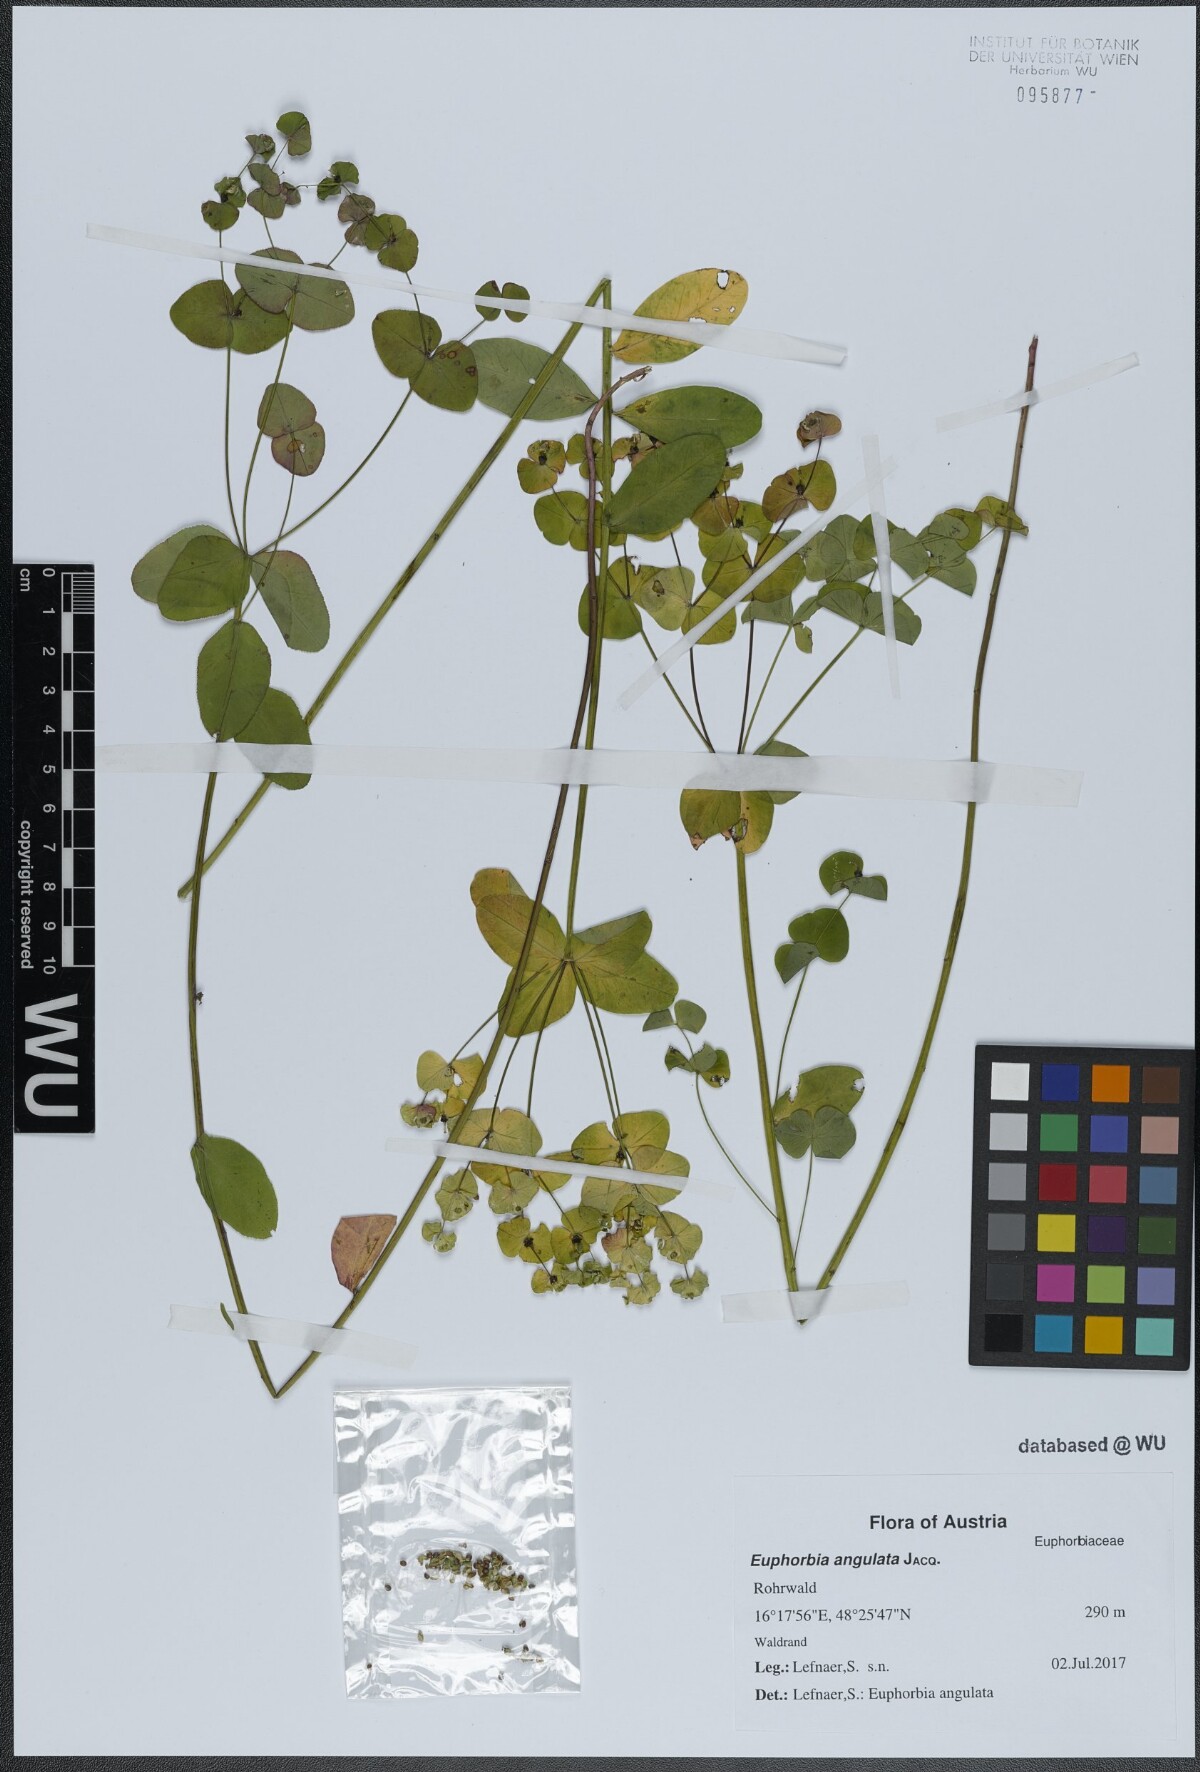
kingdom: Plantae
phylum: Tracheophyta
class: Magnoliopsida
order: Malpighiales
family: Euphorbiaceae
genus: Euphorbia
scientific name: Euphorbia angulata
